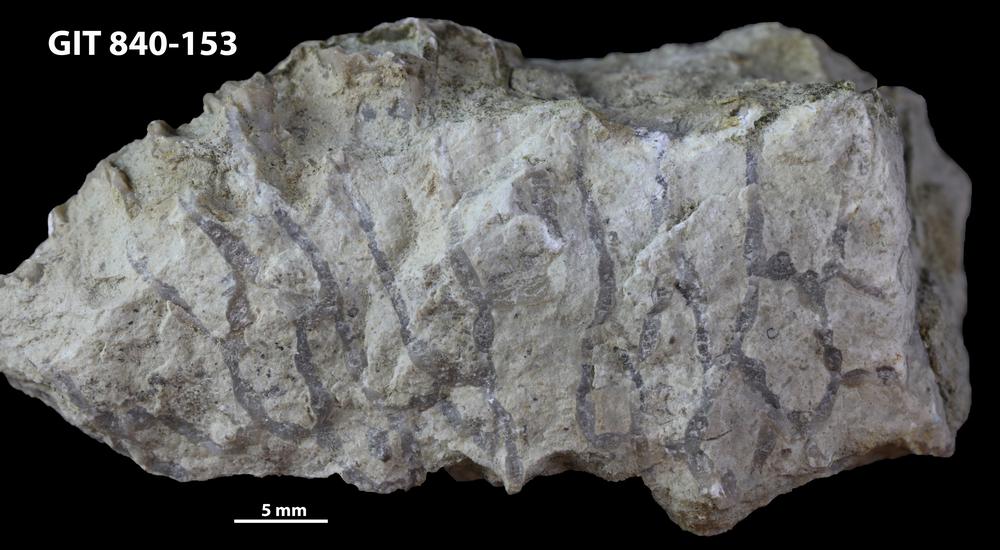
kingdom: Animalia
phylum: Cnidaria
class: Anthozoa
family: Cateniporidae
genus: Catenipora
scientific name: Catenipora
